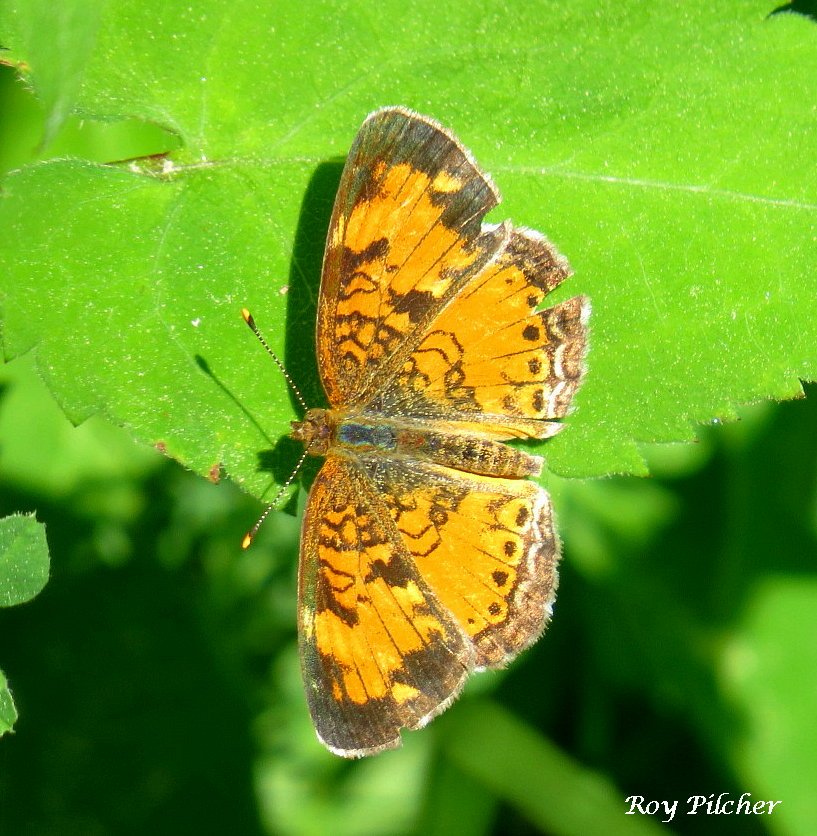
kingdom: Animalia
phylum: Arthropoda
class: Insecta
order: Lepidoptera
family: Nymphalidae
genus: Phyciodes
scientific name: Phyciodes tharos
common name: Northern Crescent
